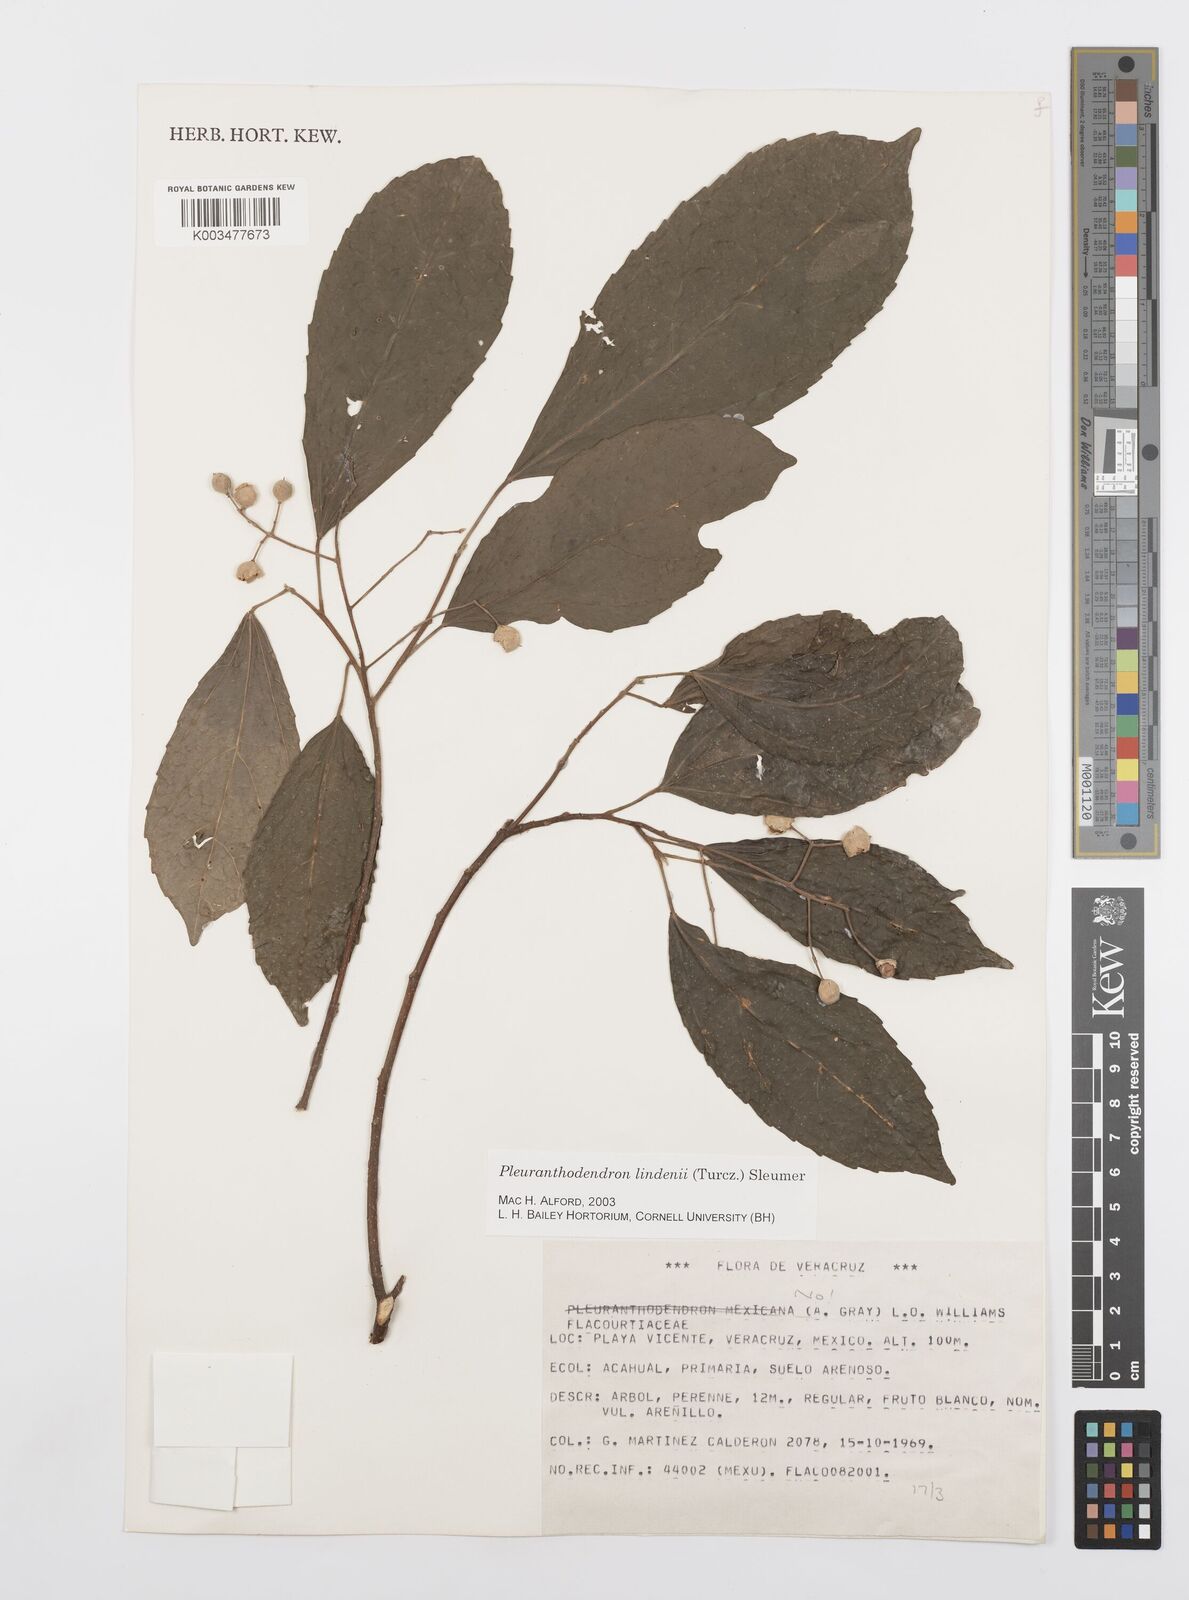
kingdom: Plantae
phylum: Tracheophyta
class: Magnoliopsida
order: Malpighiales
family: Salicaceae
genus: Pleuranthodendron
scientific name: Pleuranthodendron lindenii
